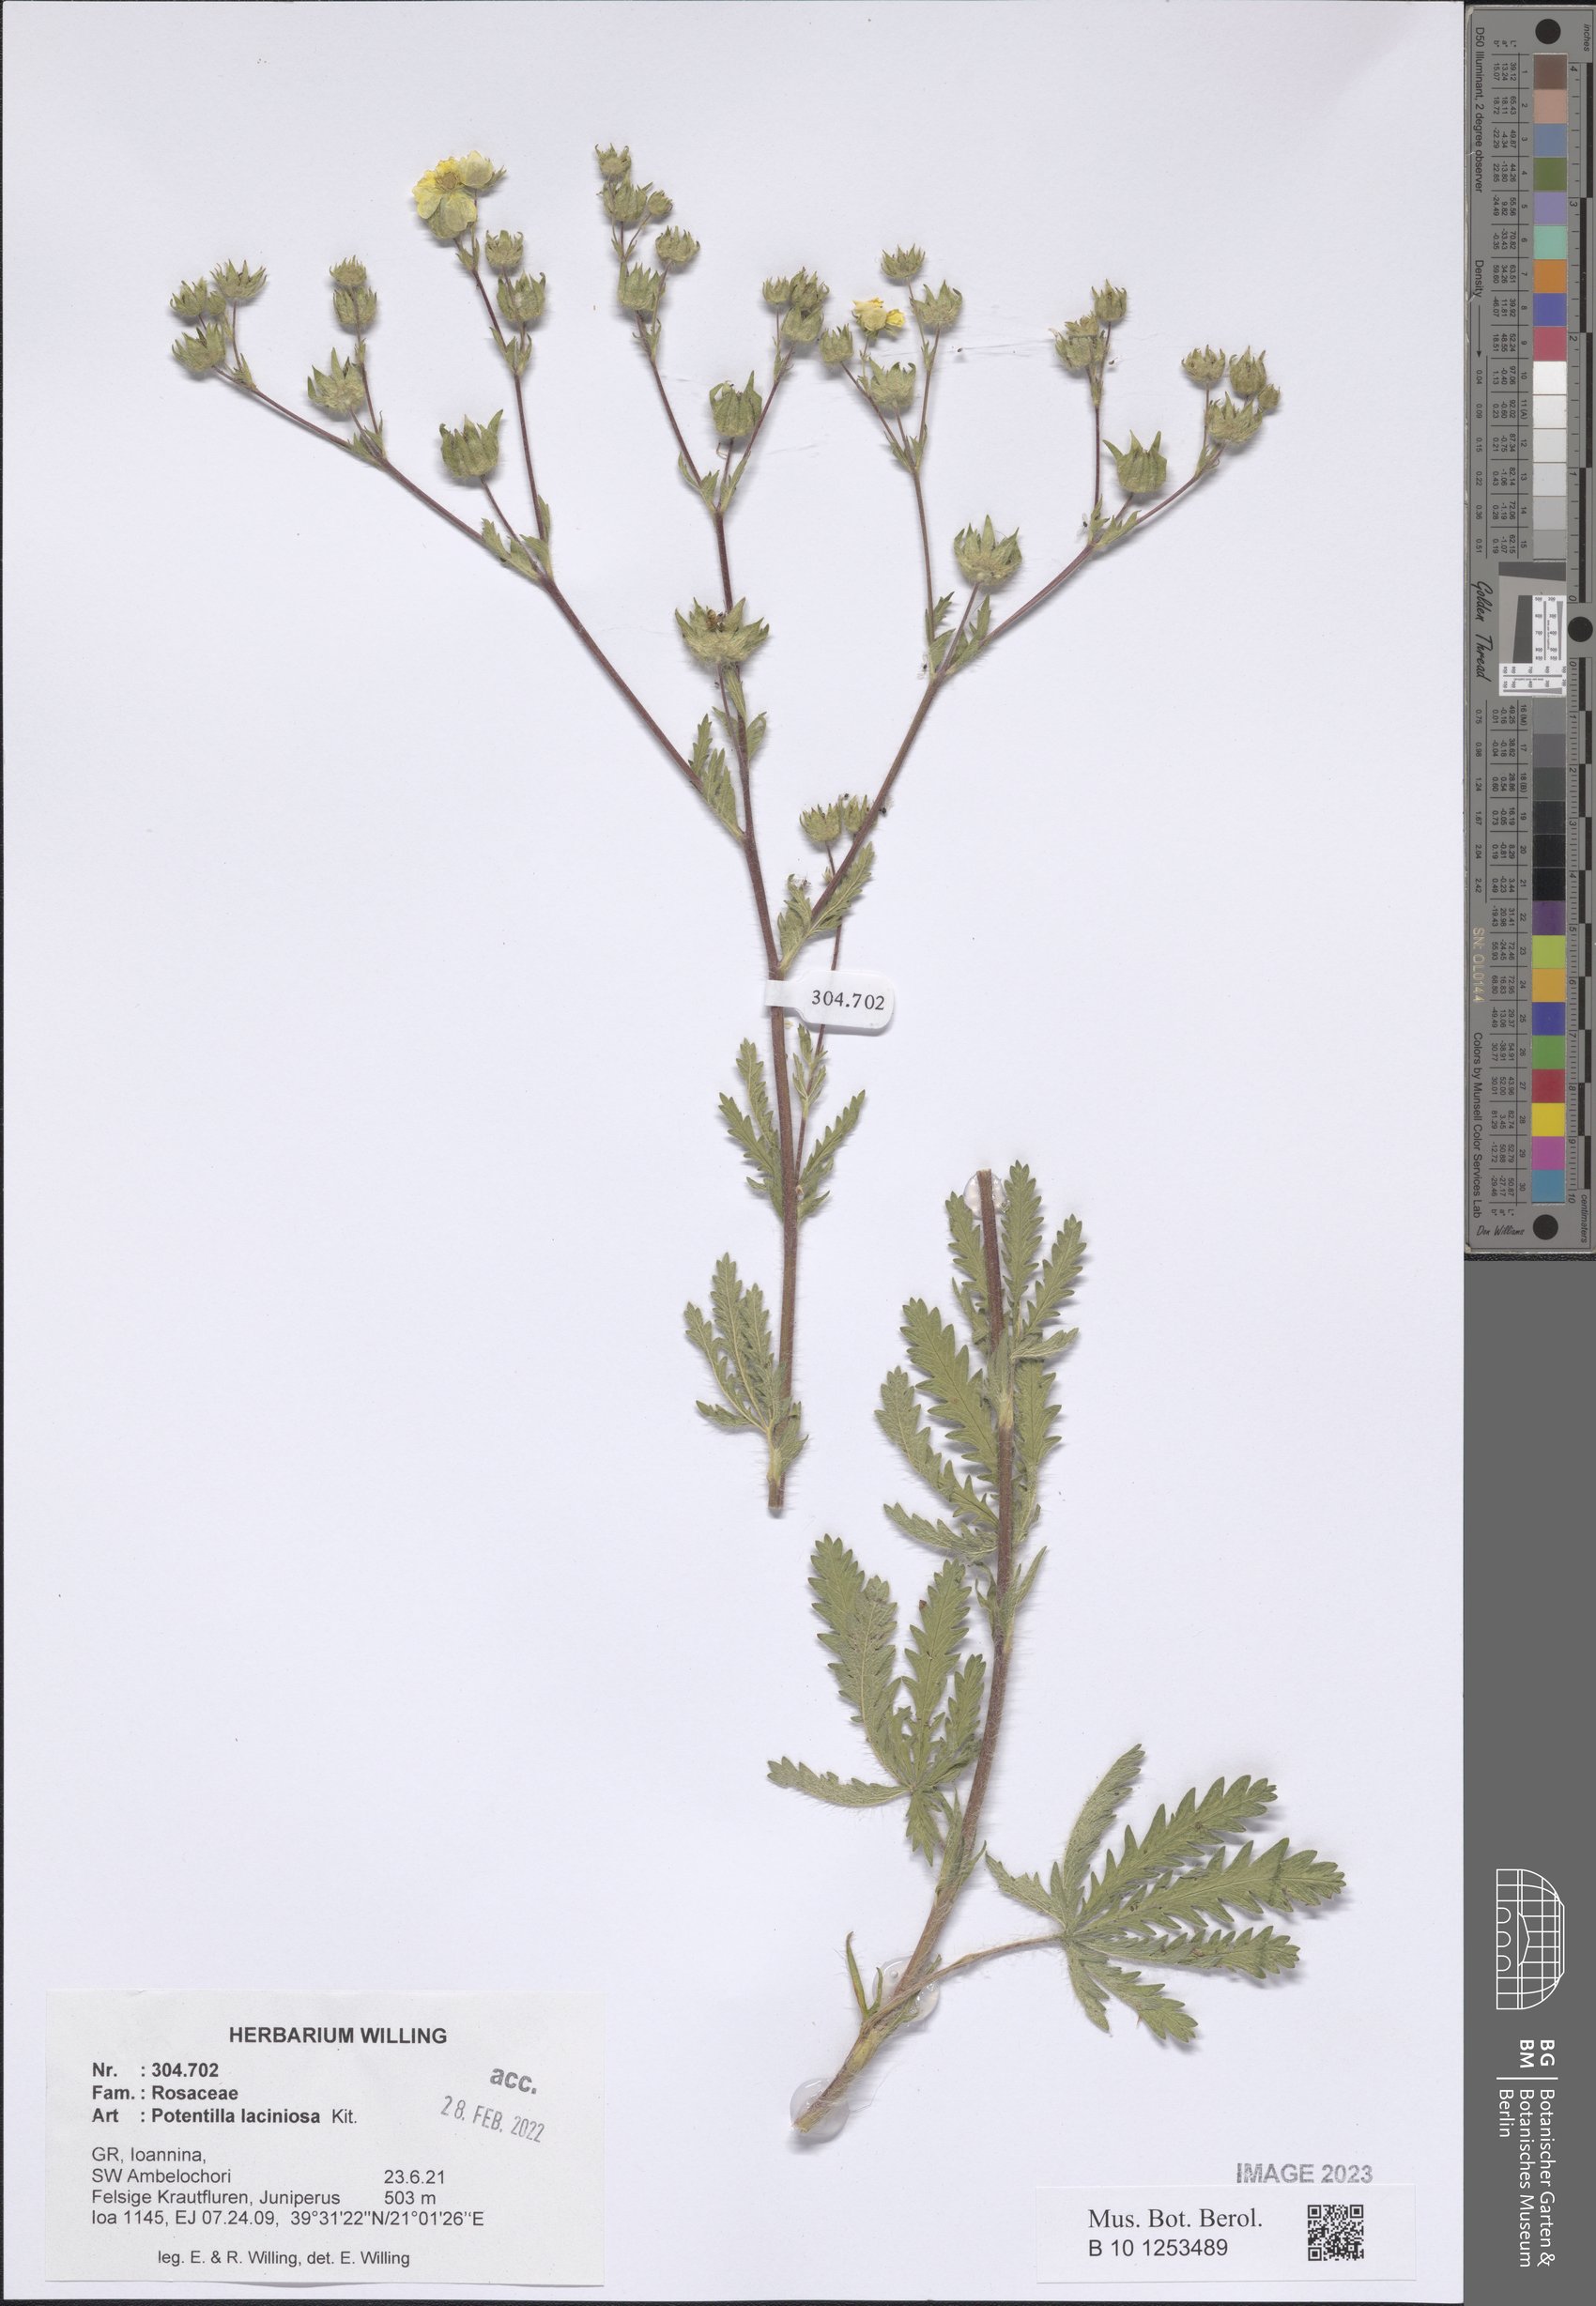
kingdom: Plantae
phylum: Tracheophyta
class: Magnoliopsida
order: Rosales
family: Rosaceae
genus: Potentilla
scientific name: Potentilla recta
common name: Sulphur cinquefoil
